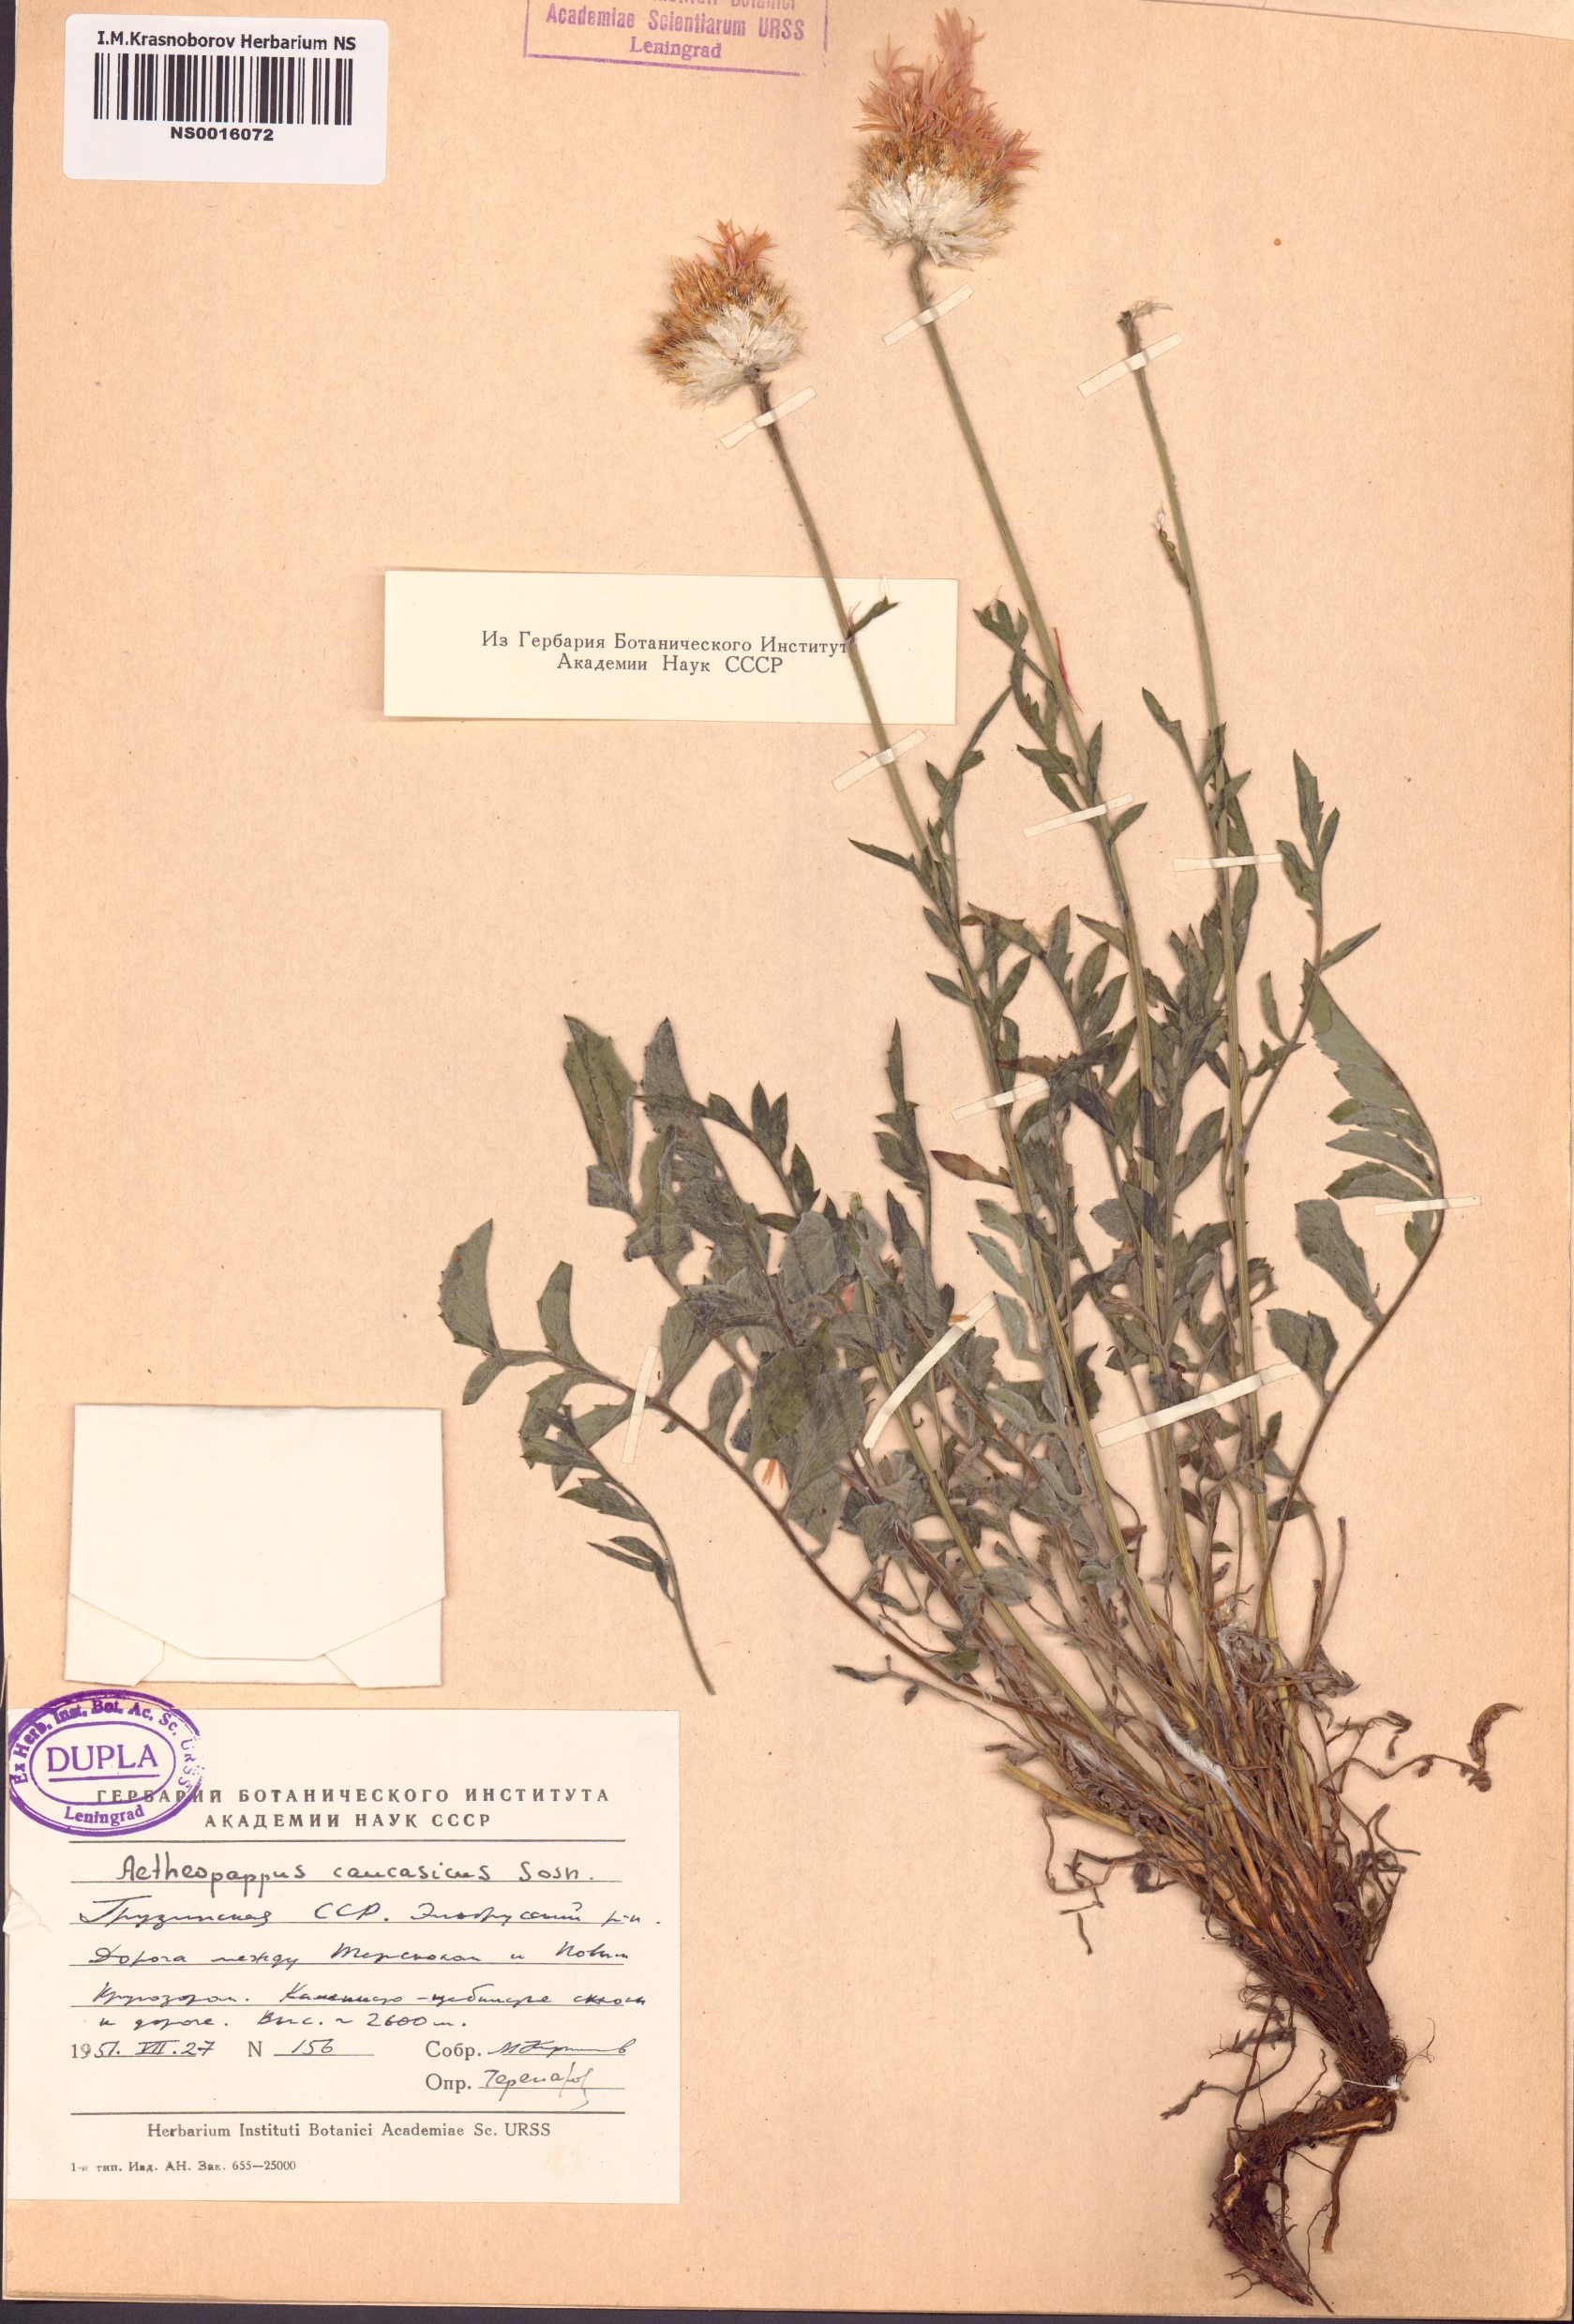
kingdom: Plantae
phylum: Tracheophyta
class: Magnoliopsida
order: Asterales
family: Asteraceae
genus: Psephellus
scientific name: Psephellus caucasicus
